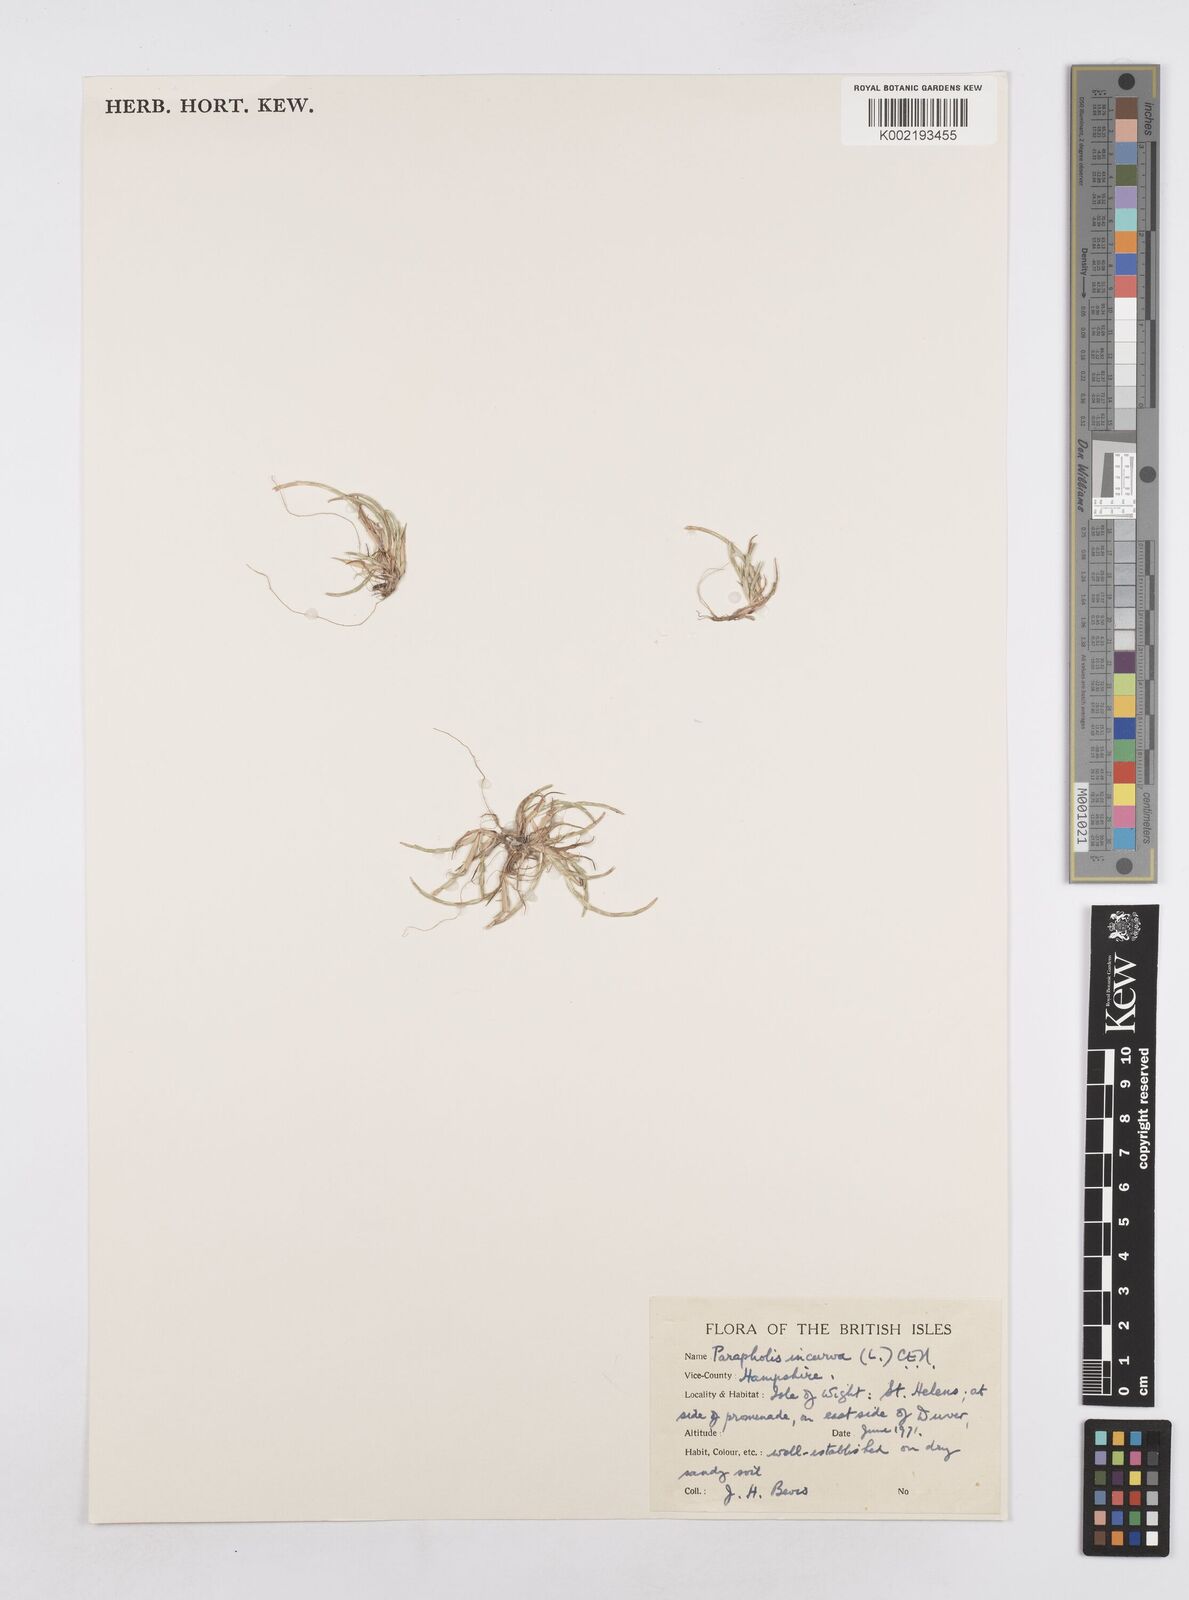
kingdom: Plantae
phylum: Tracheophyta
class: Liliopsida
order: Poales
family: Poaceae
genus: Parapholis
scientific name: Parapholis incurva
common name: Curved sicklegrass
